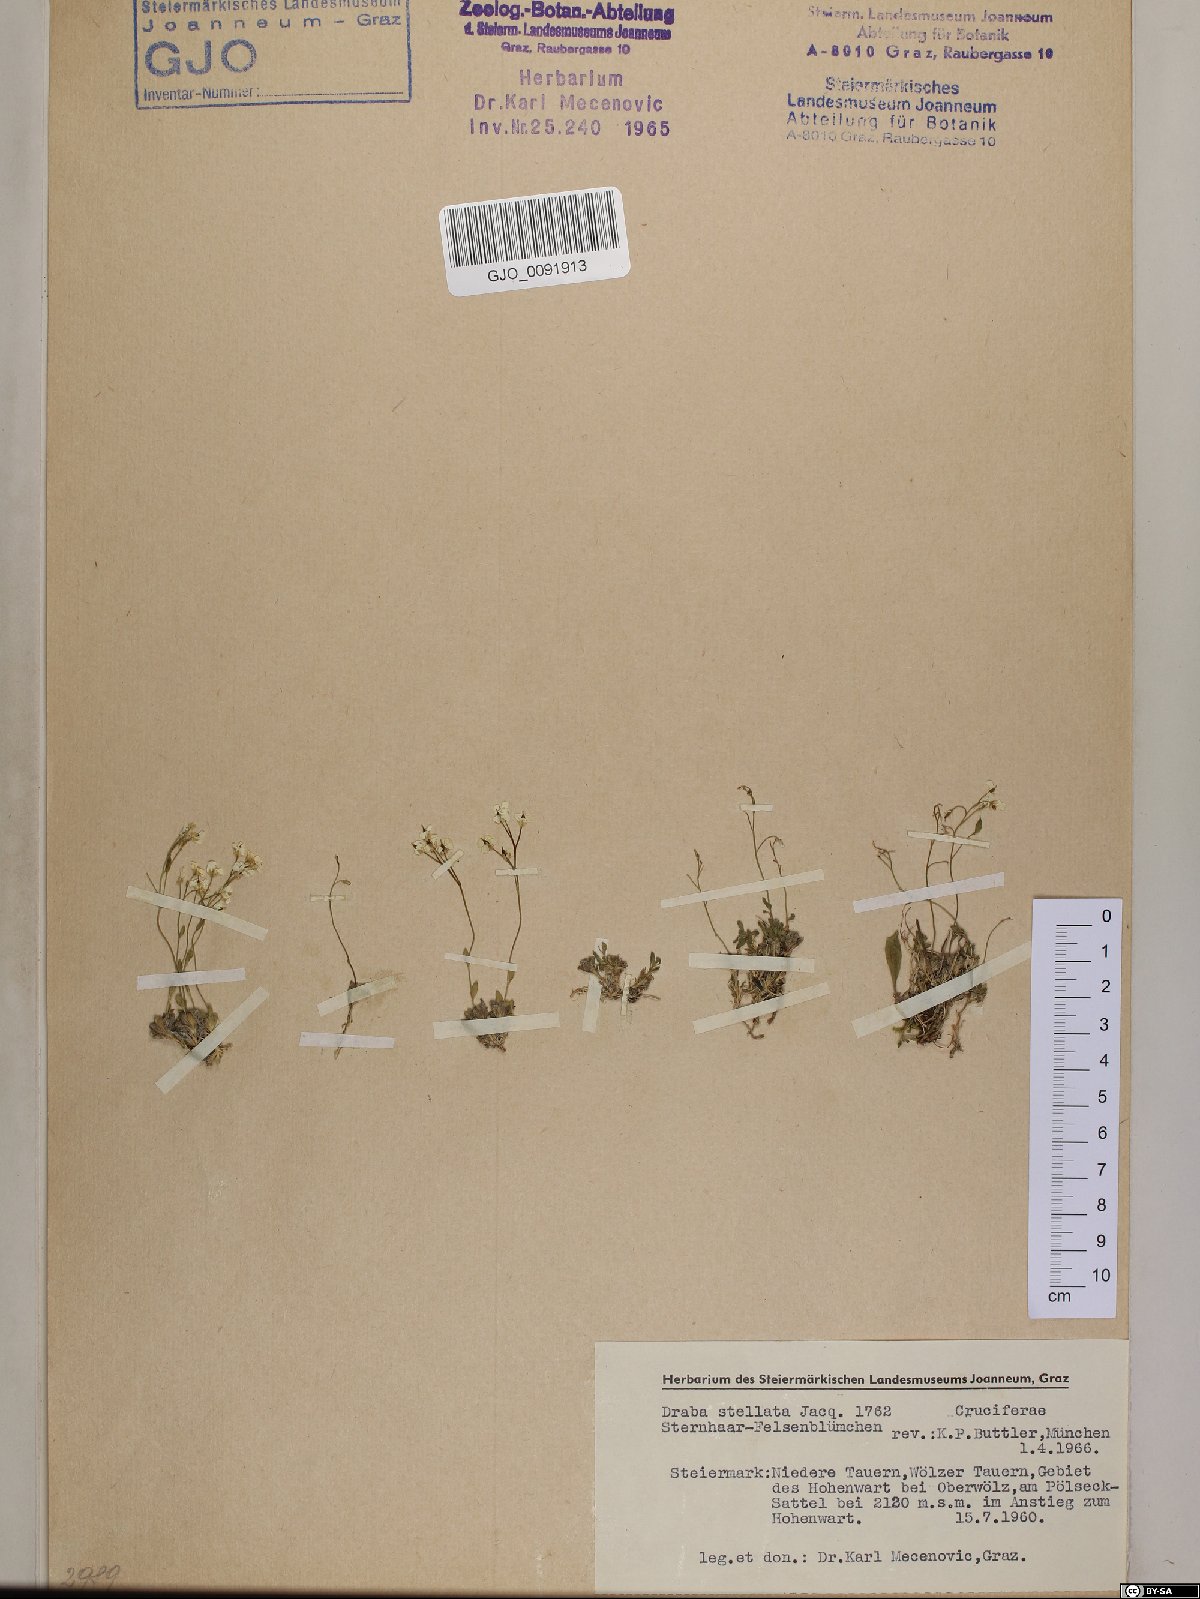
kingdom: Plantae
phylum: Tracheophyta
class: Magnoliopsida
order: Brassicales
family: Brassicaceae
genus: Draba
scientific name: Draba stellata
